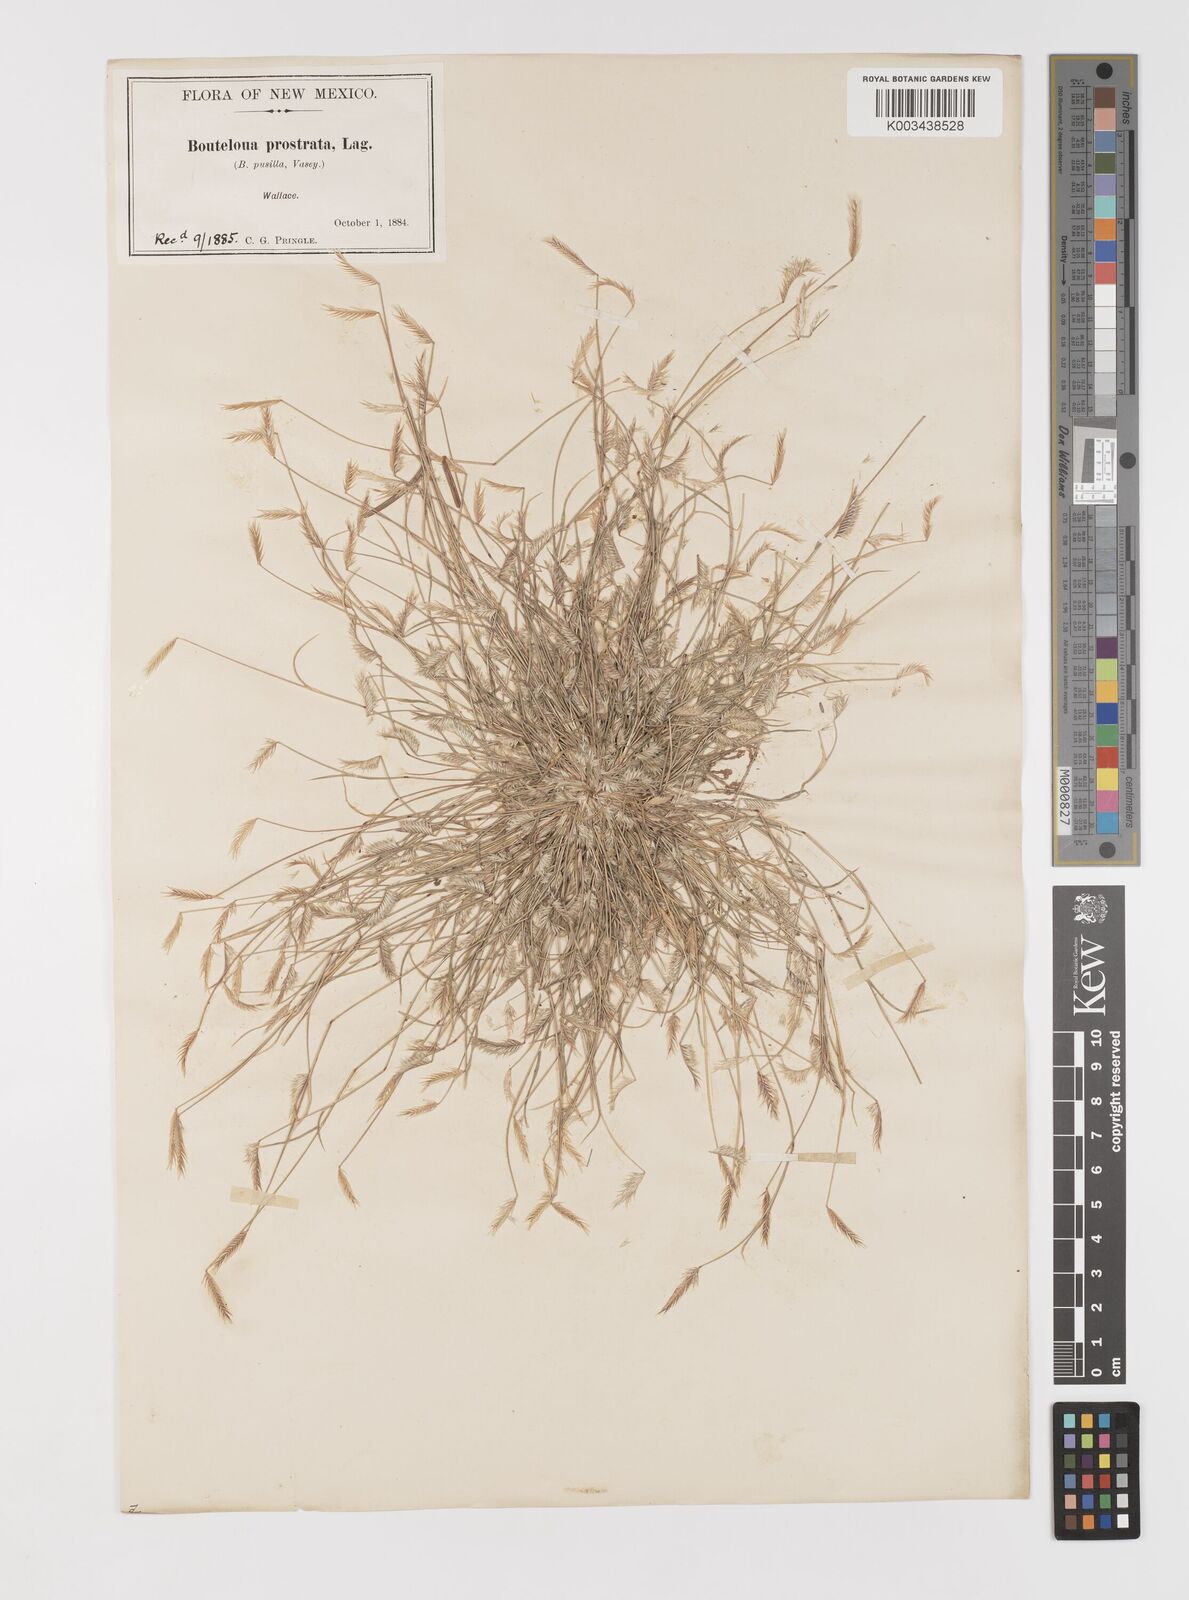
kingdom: Plantae
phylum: Tracheophyta
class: Liliopsida
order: Poales
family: Poaceae
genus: Bouteloua
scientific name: Bouteloua simplex
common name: Mat grama
